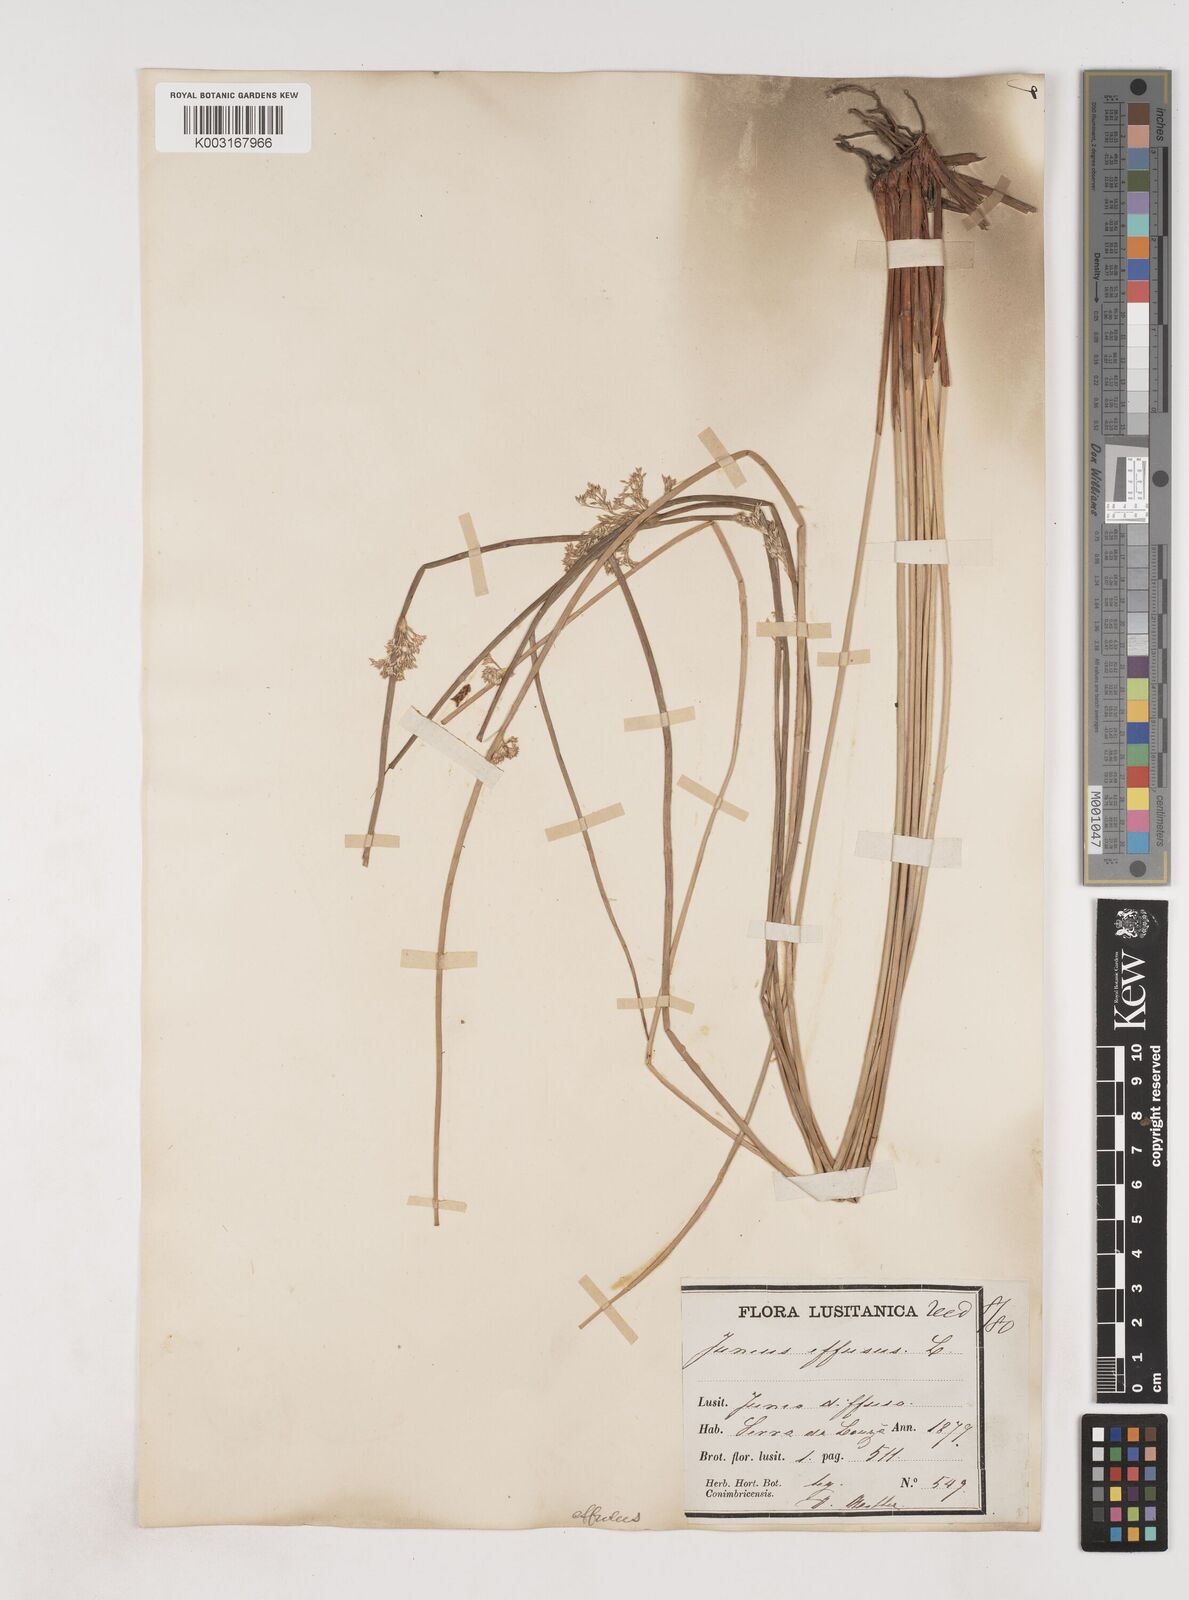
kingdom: Plantae
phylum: Tracheophyta
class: Liliopsida
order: Poales
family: Juncaceae
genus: Juncus
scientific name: Juncus effusus
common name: Soft rush
